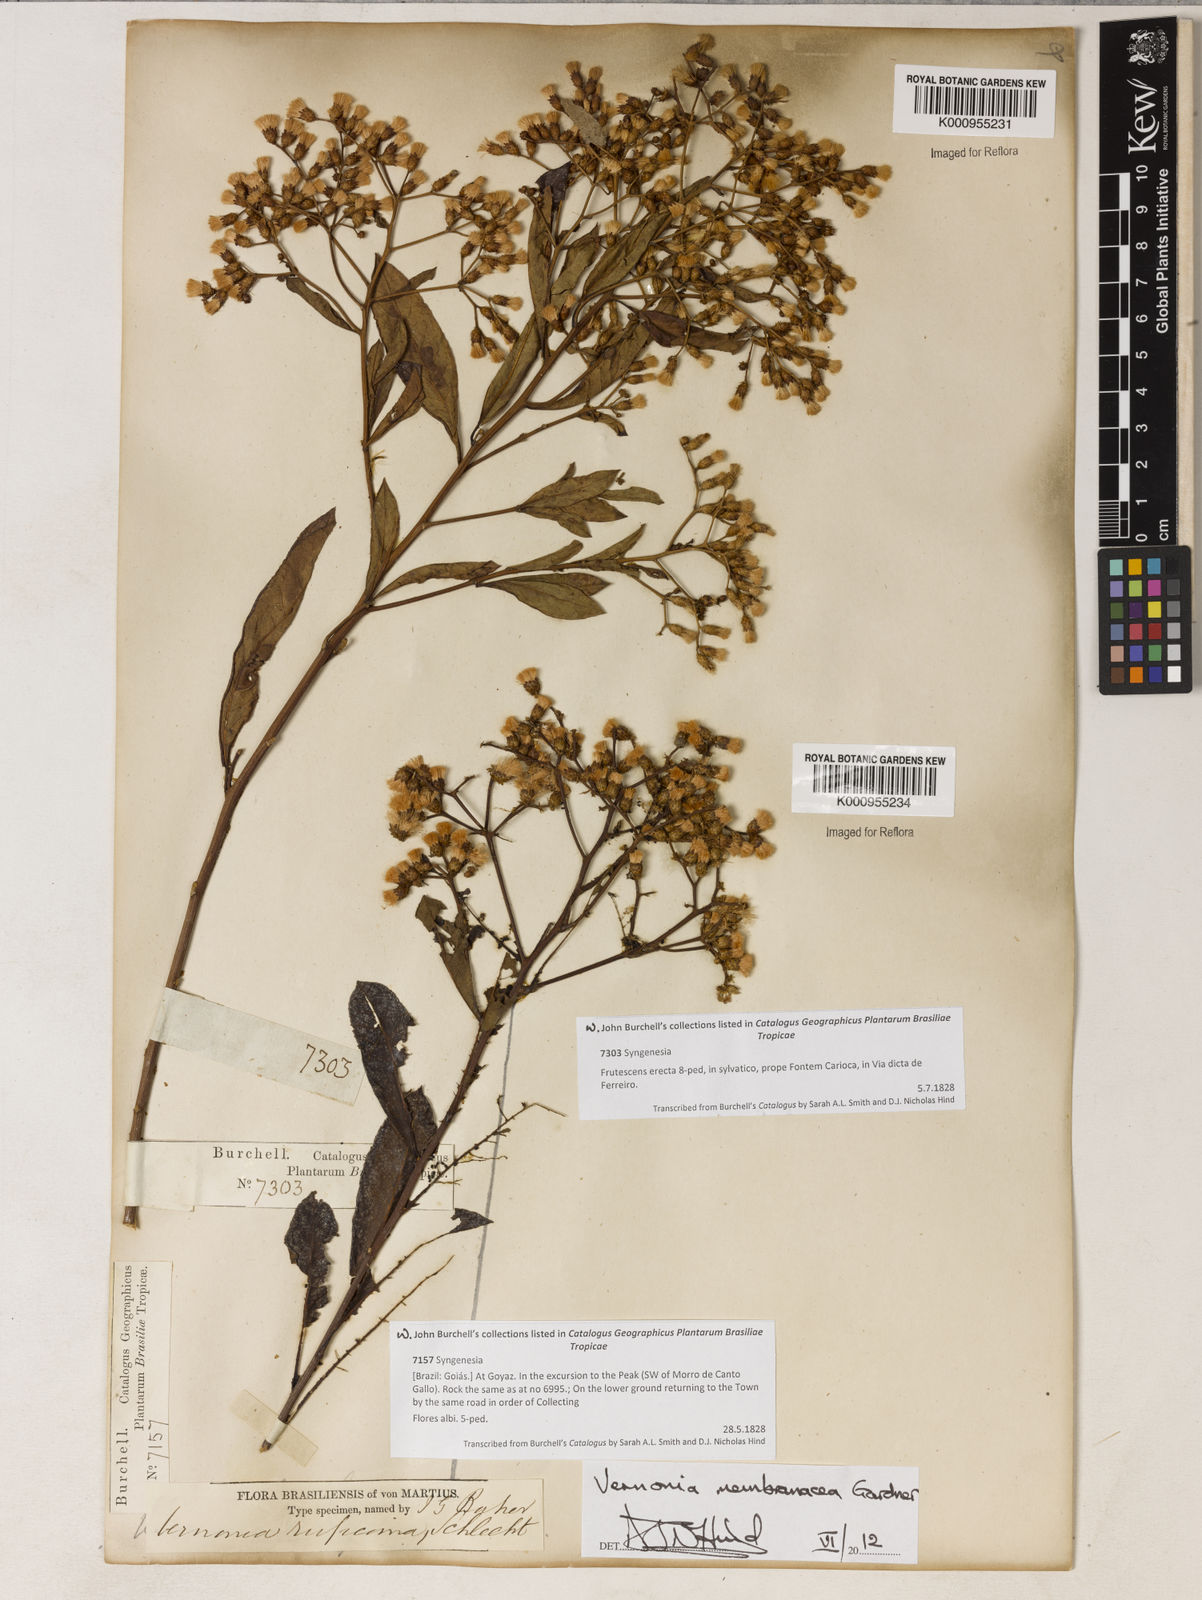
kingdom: Plantae
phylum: Tracheophyta
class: Magnoliopsida
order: Asterales
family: Asteraceae
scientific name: Asteraceae
